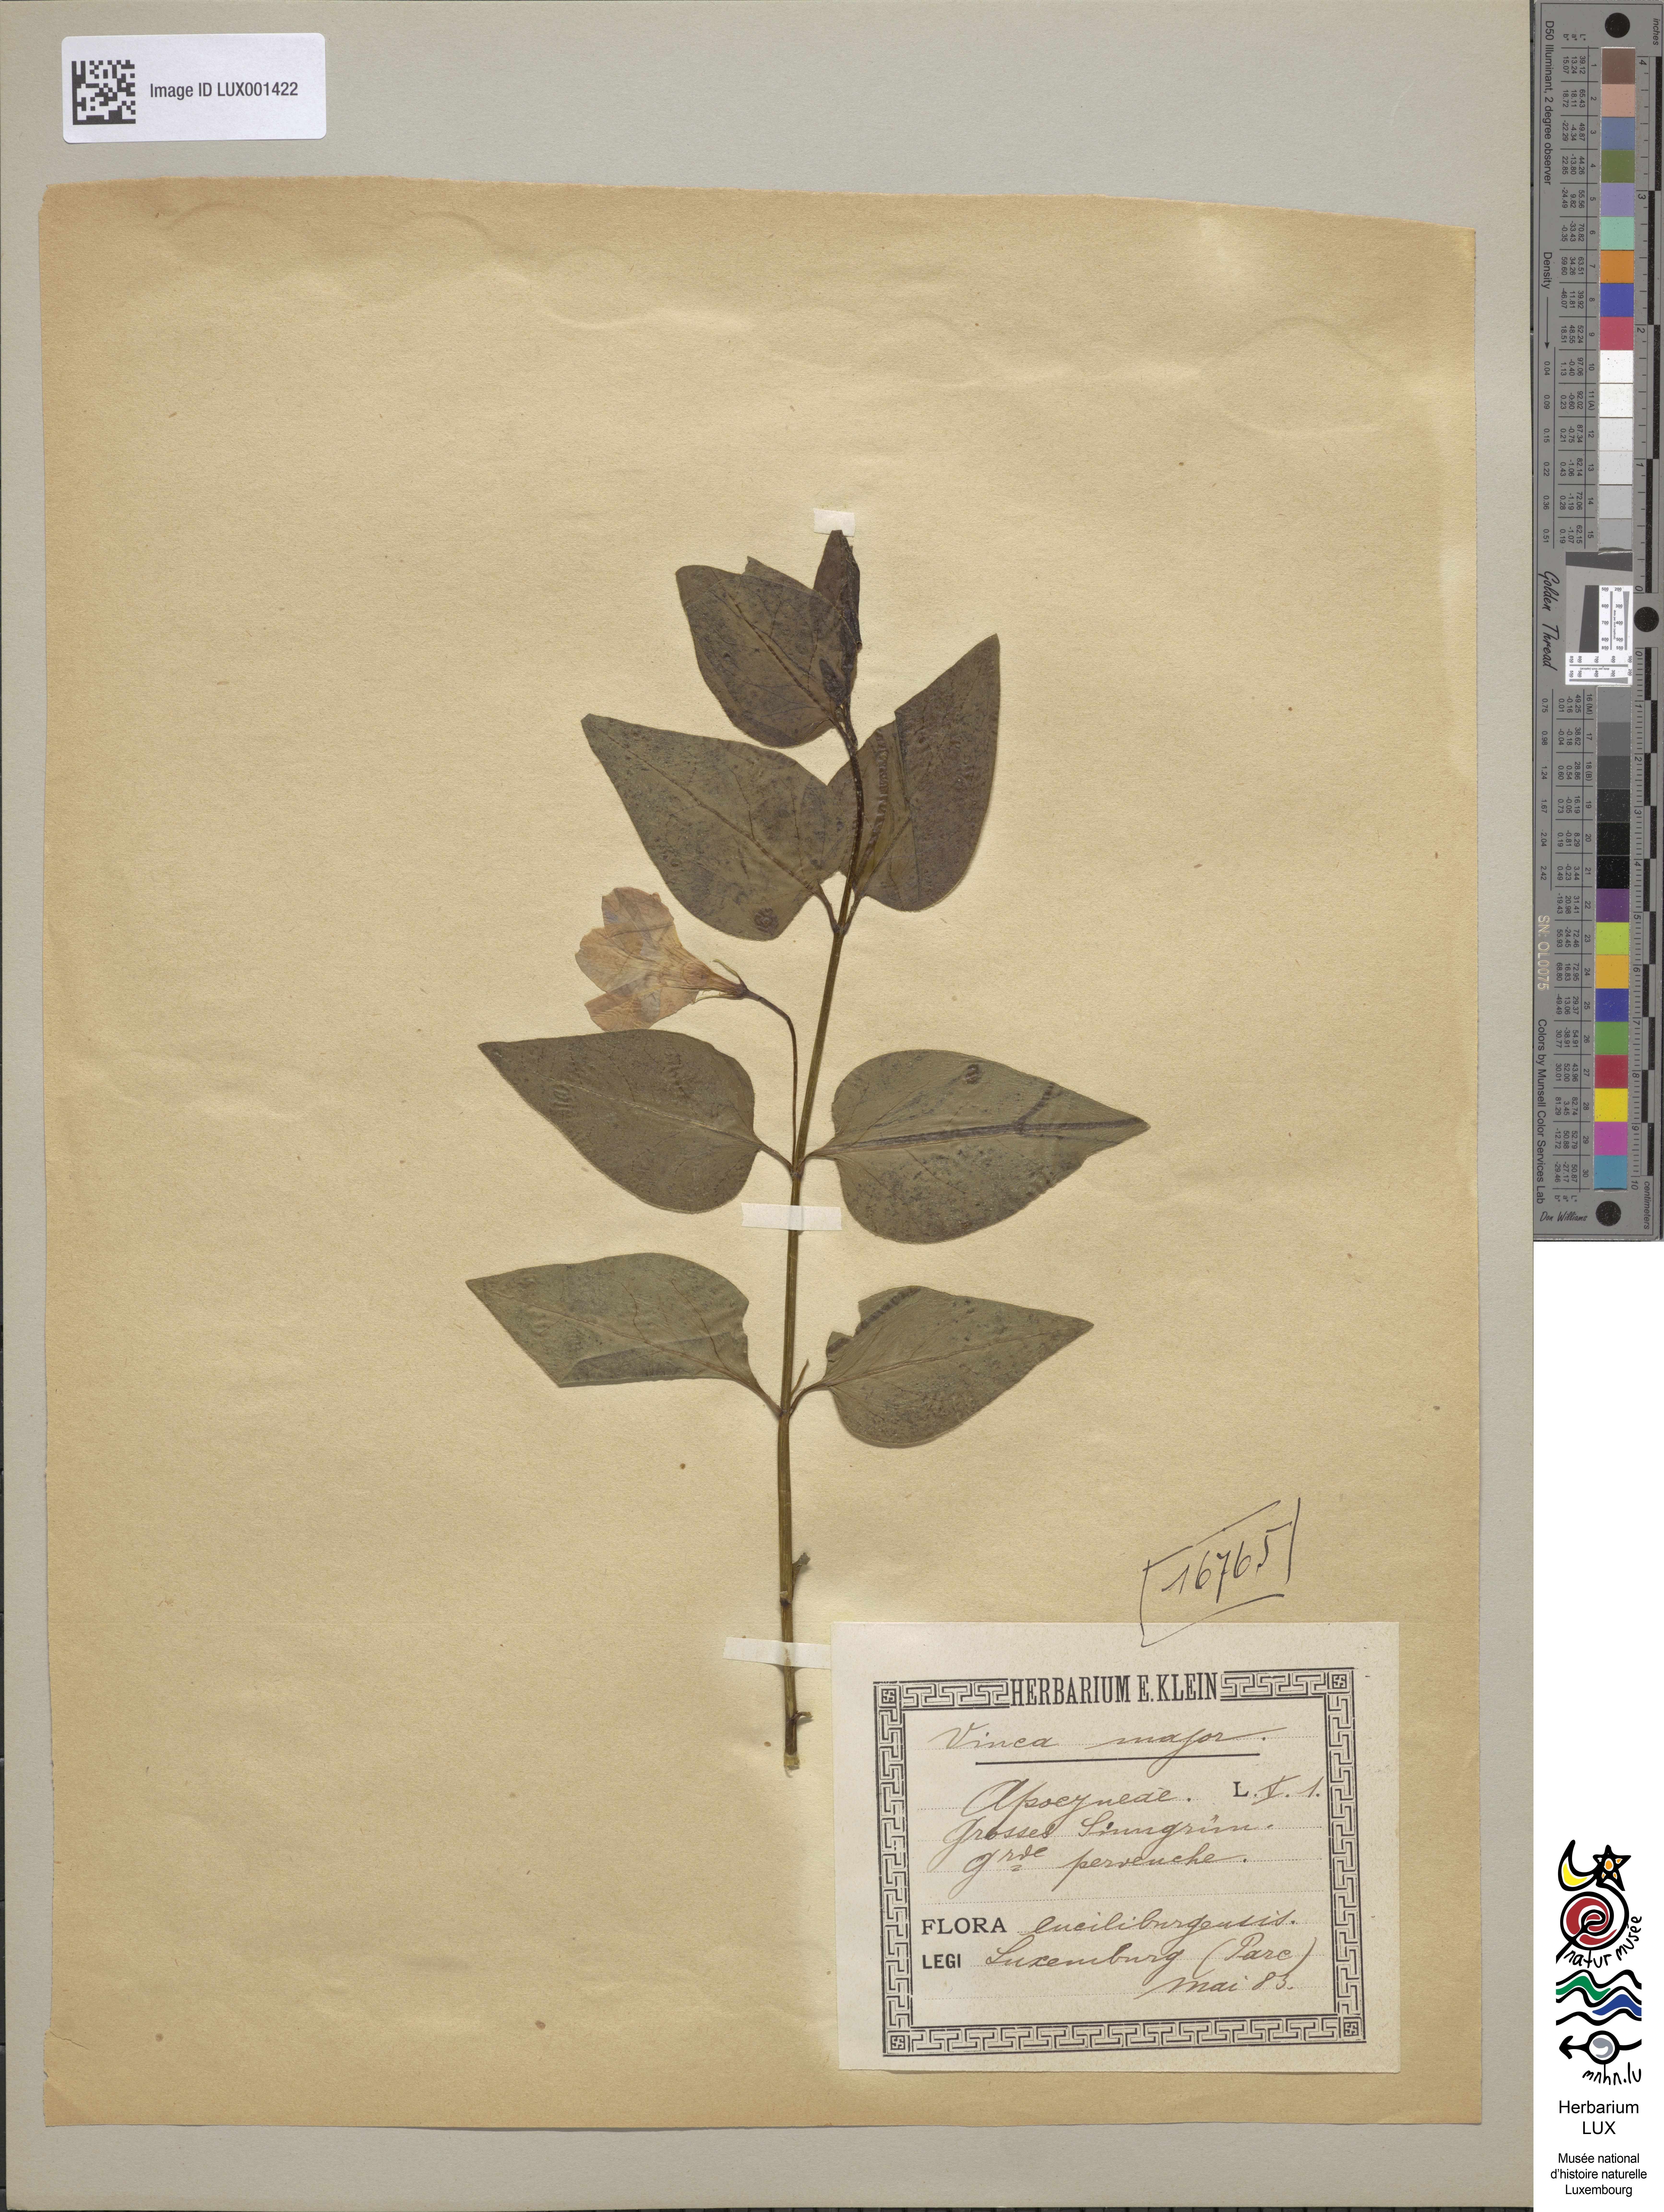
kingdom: Plantae
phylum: Tracheophyta
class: Magnoliopsida
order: Gentianales
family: Apocynaceae
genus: Vinca
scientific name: Vinca major
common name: Greater periwinkle
